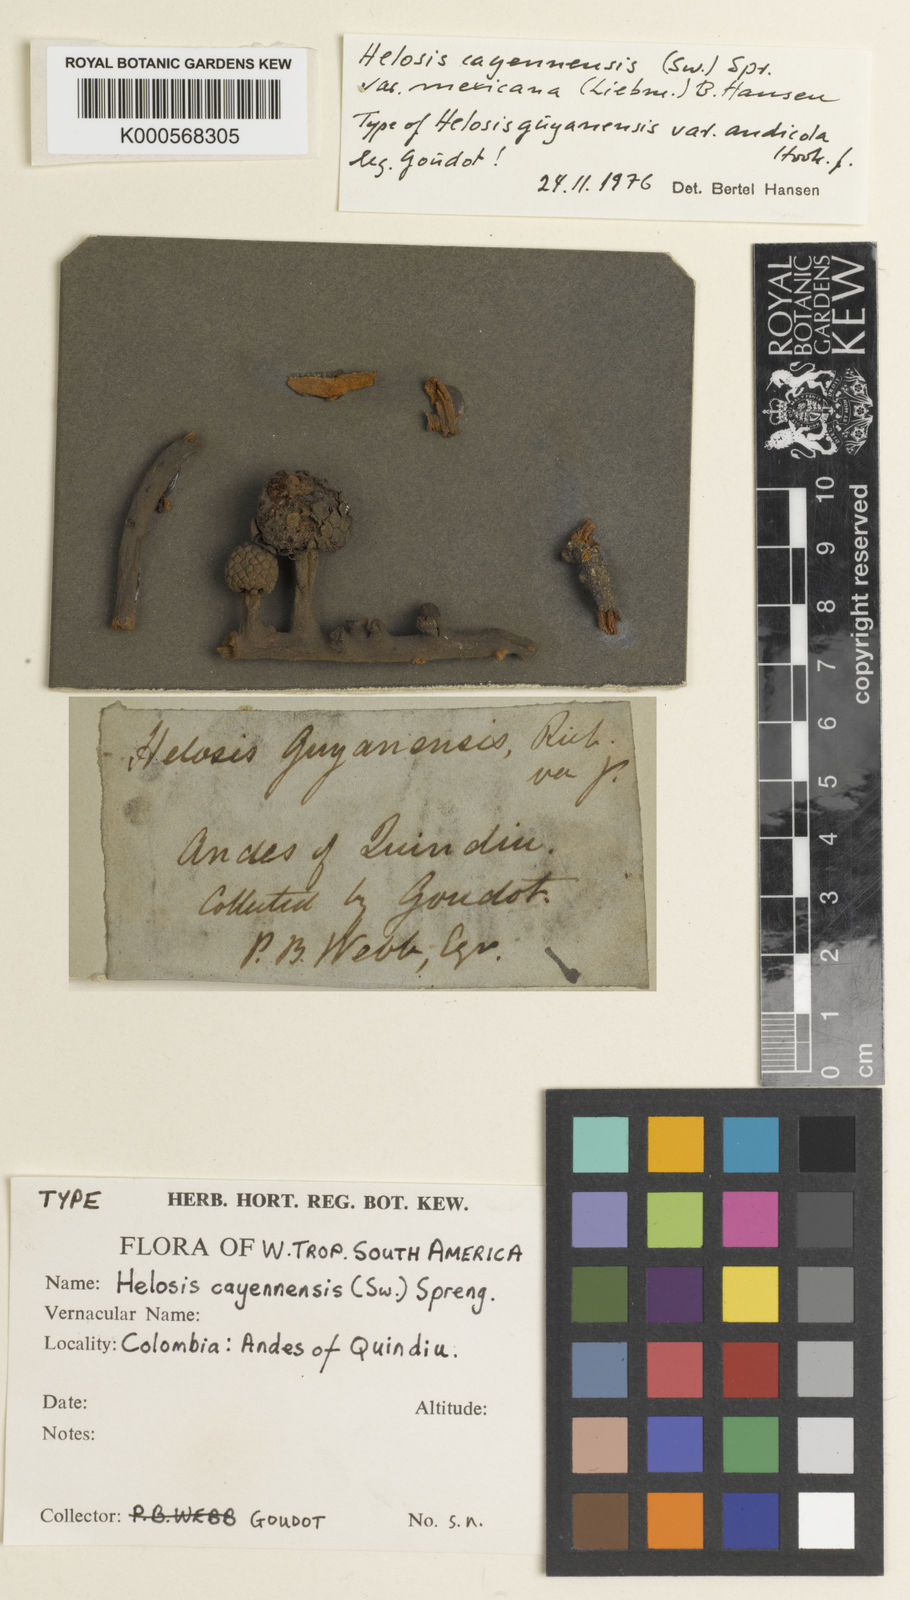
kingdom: Plantae
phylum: Tracheophyta
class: Magnoliopsida
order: Santalales
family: Balanophoraceae
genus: Helosis
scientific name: Helosis cayennensis
